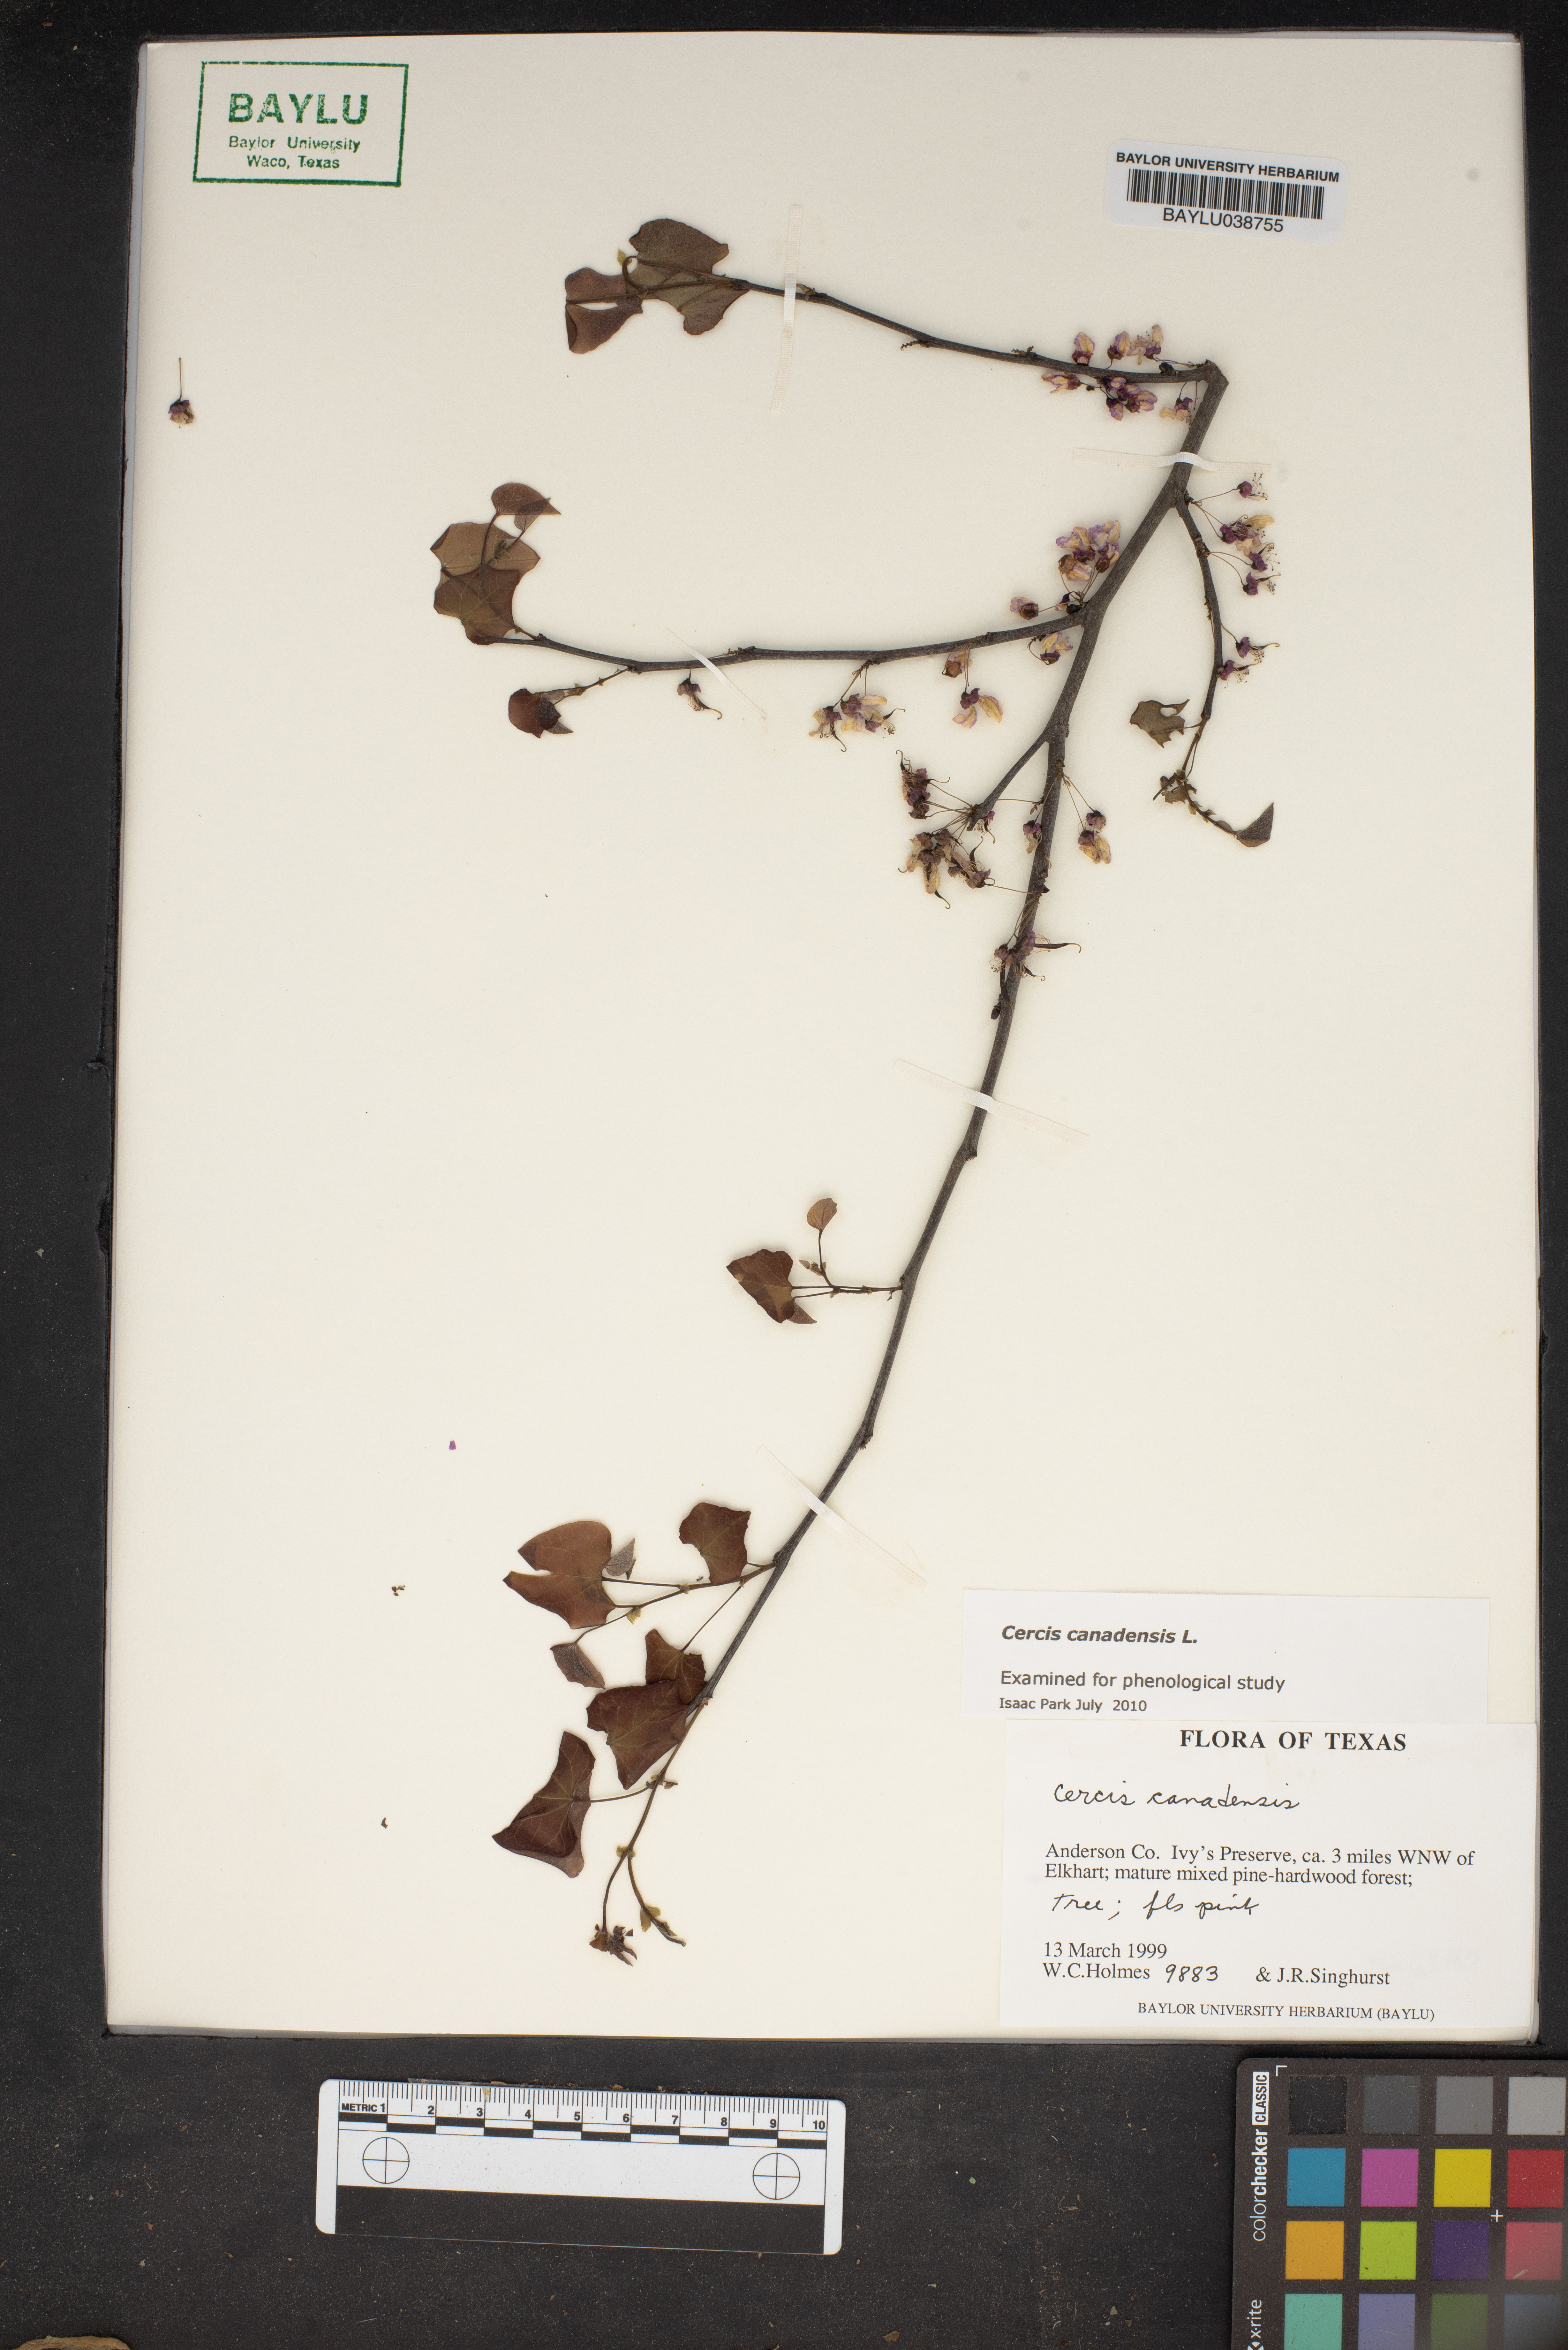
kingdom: Plantae
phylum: Tracheophyta
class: Magnoliopsida
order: Fabales
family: Fabaceae
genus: Cercis
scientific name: Cercis canadensis
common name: Eastern redbud
